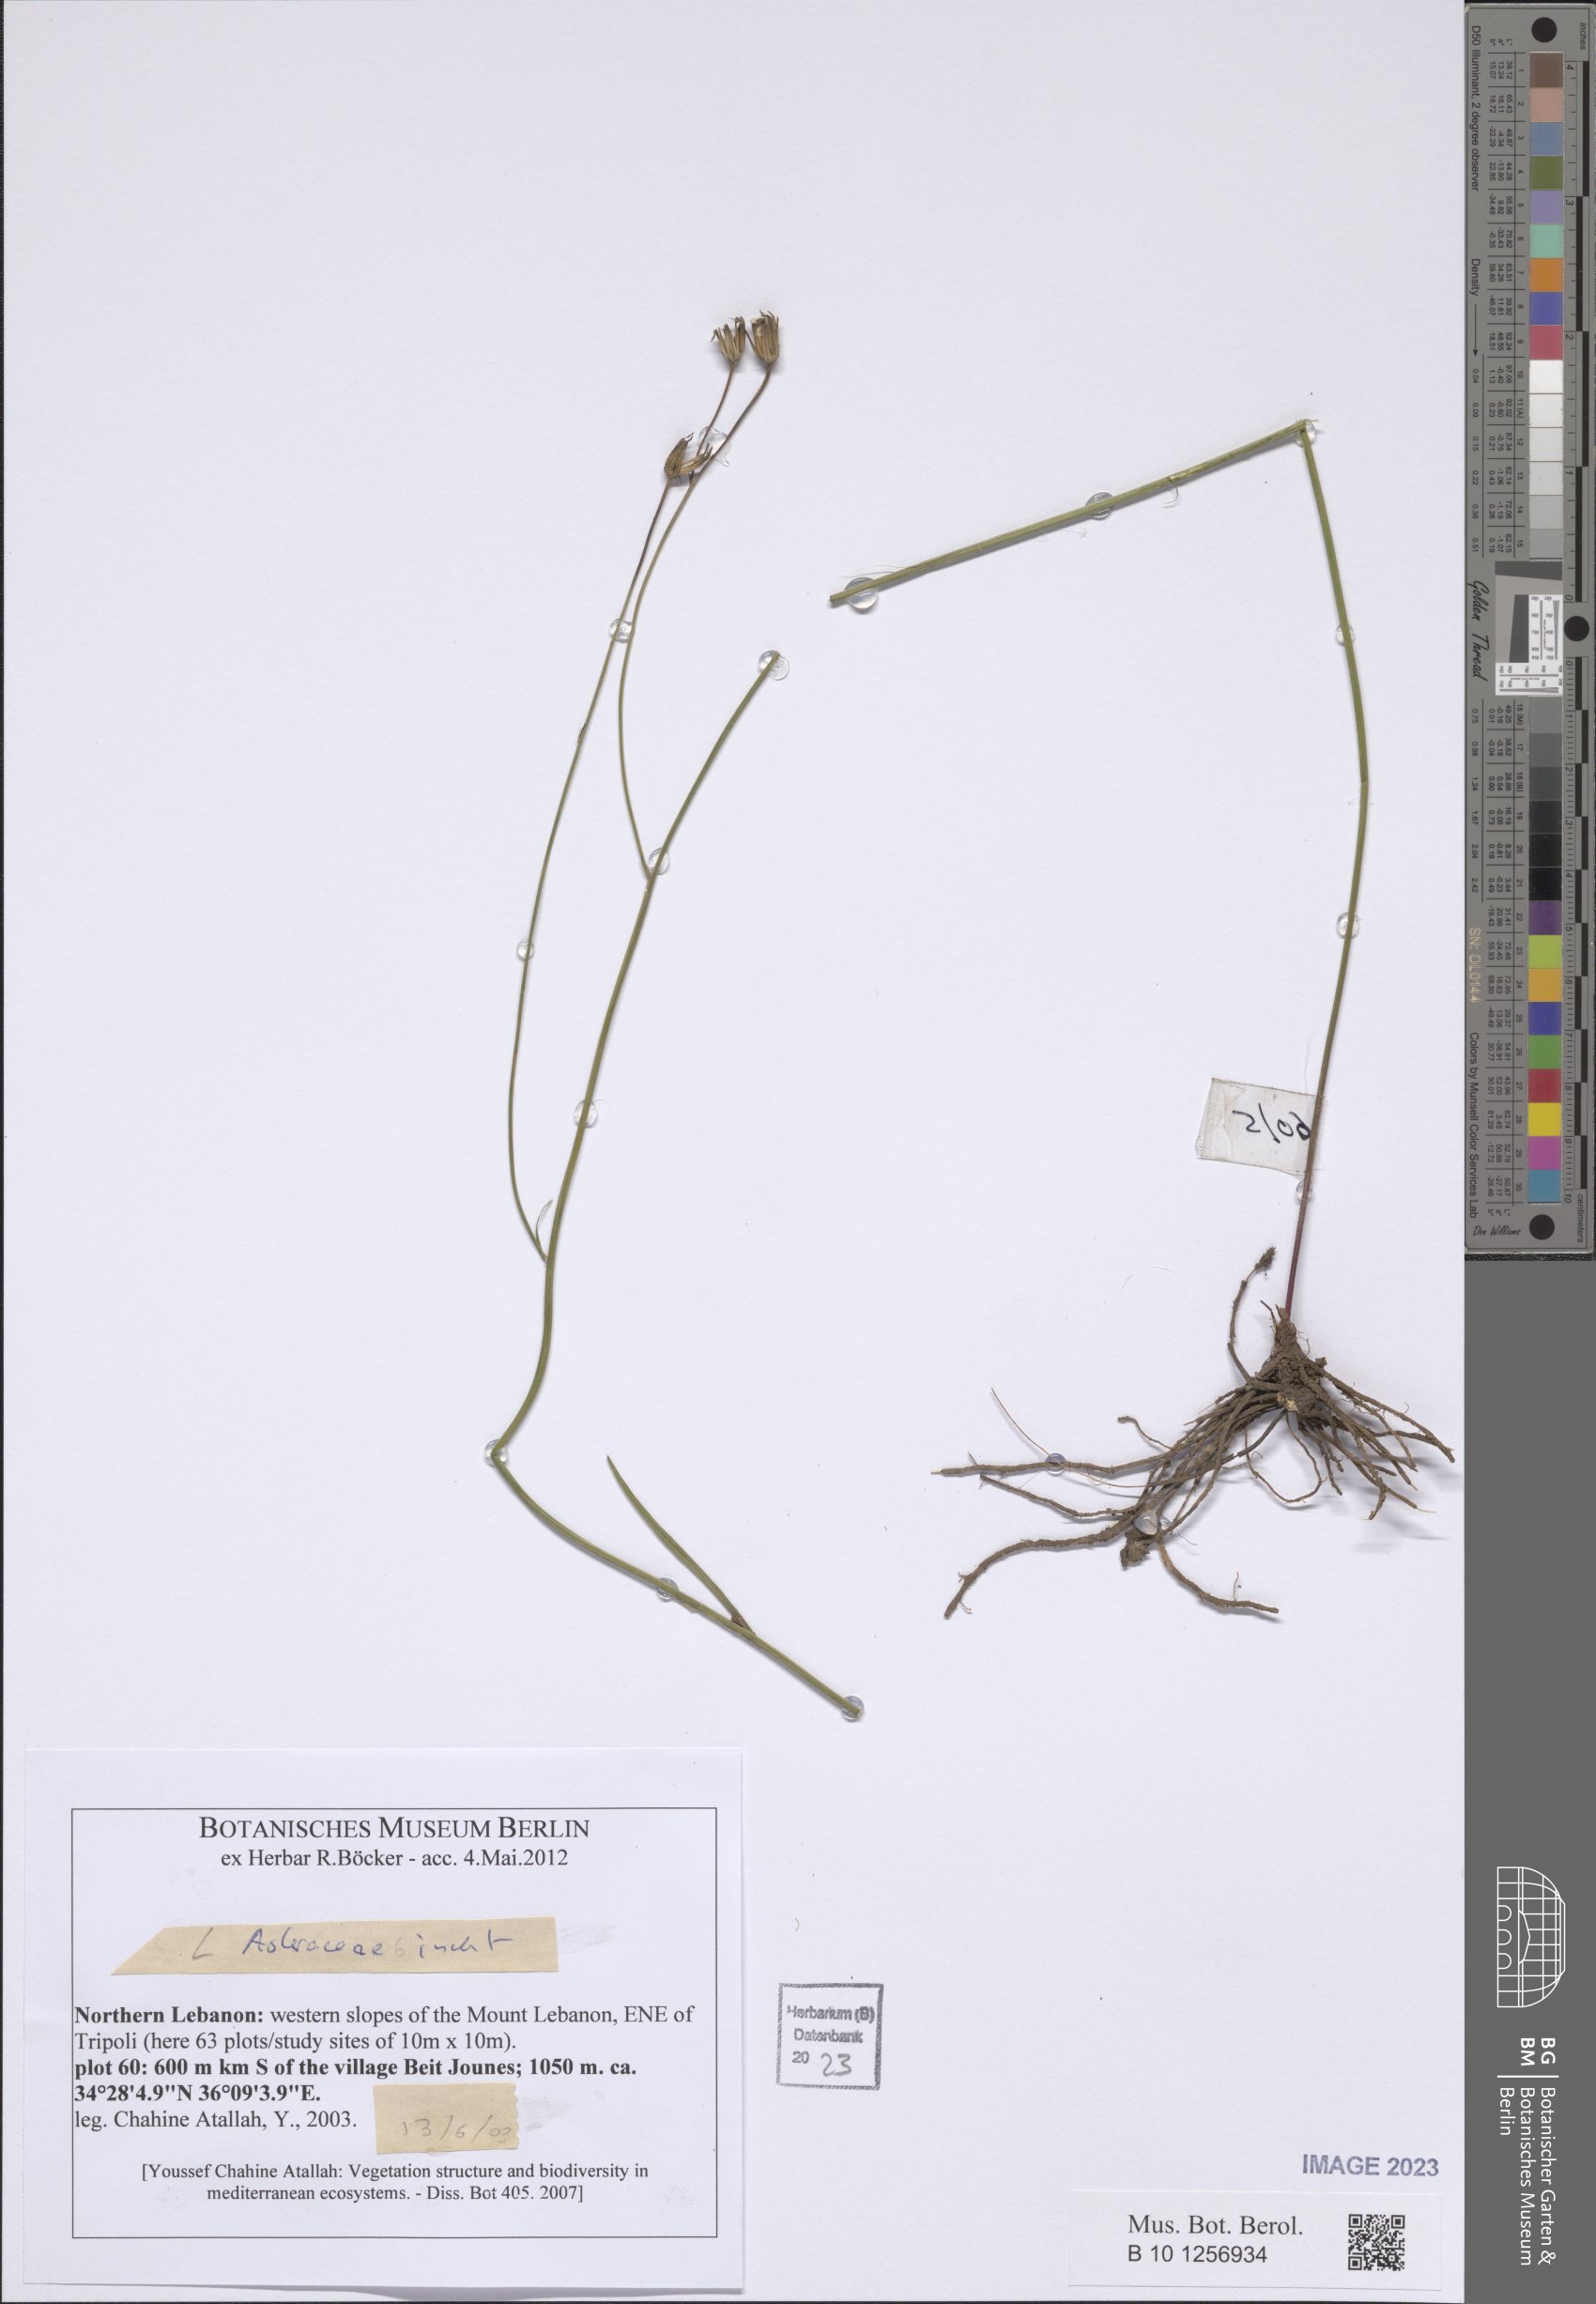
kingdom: Plantae
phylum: Tracheophyta
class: Magnoliopsida
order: Asterales
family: Asteraceae
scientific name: Asteraceae
